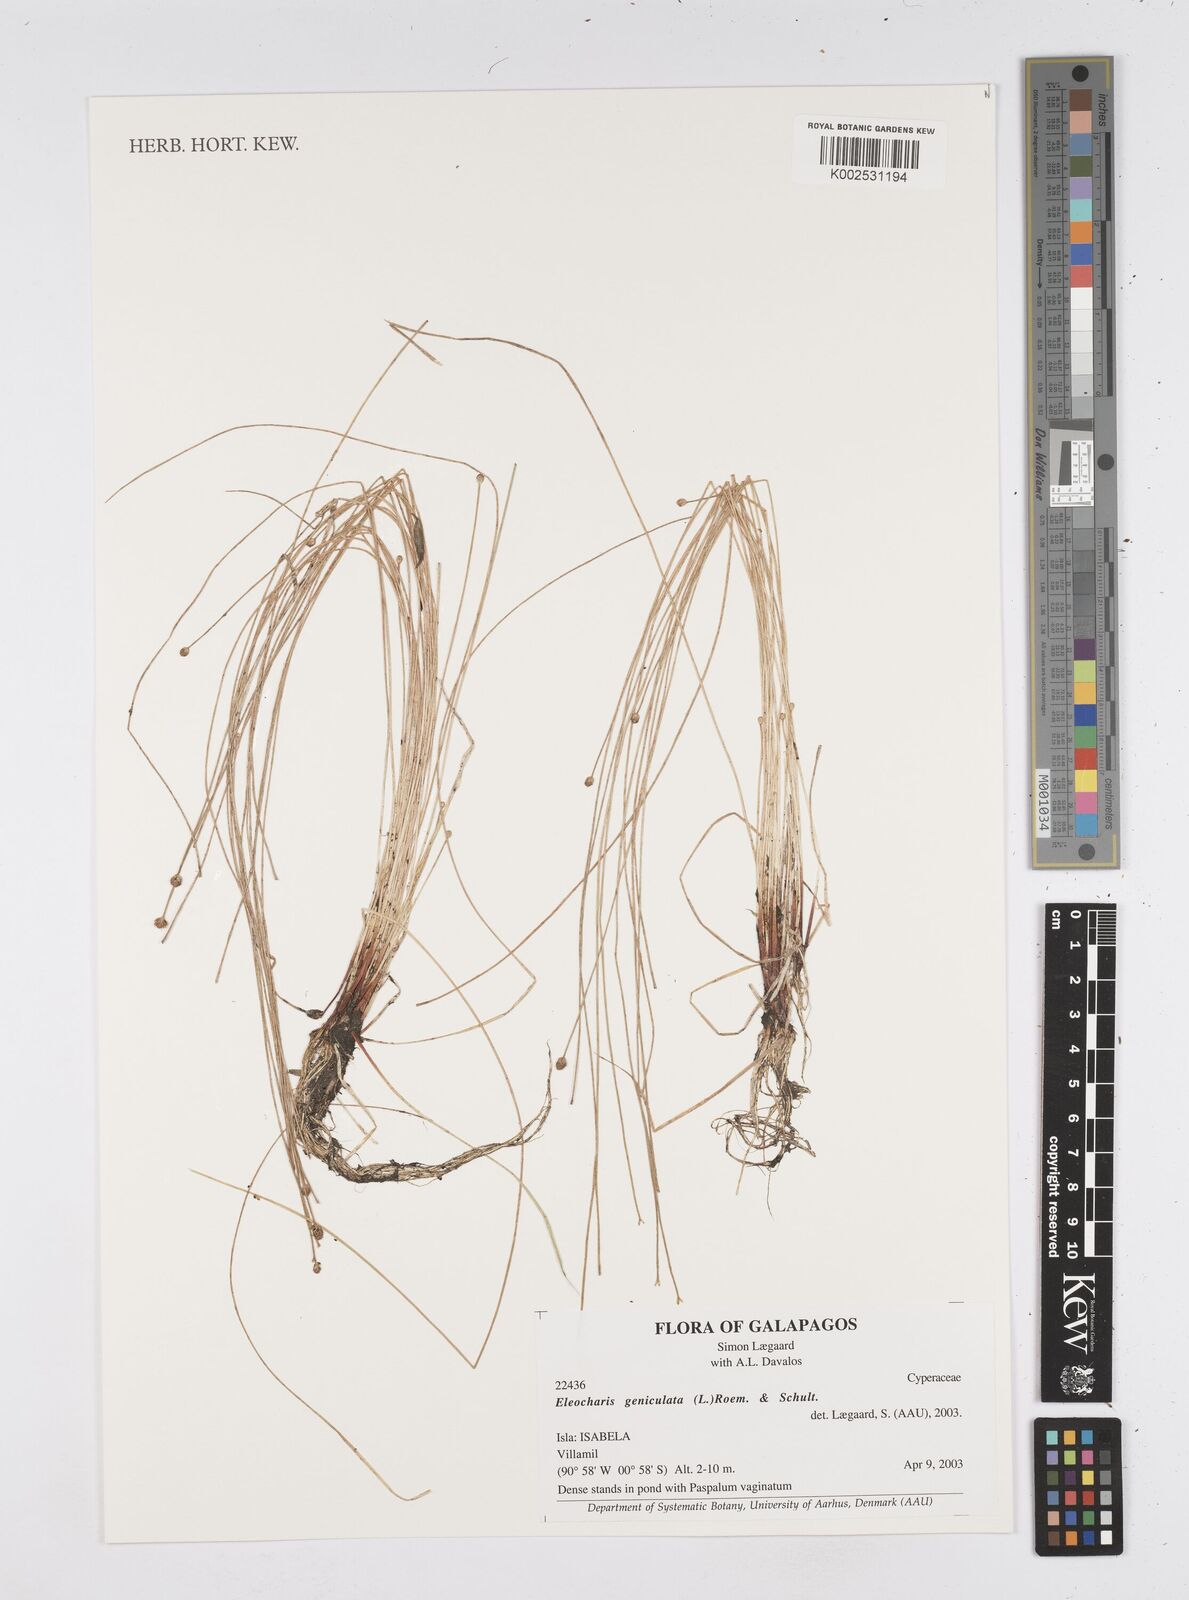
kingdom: Plantae
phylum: Tracheophyta
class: Liliopsida
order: Poales
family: Cyperaceae
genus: Eleocharis
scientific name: Eleocharis geniculata
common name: Canada spikesedge
